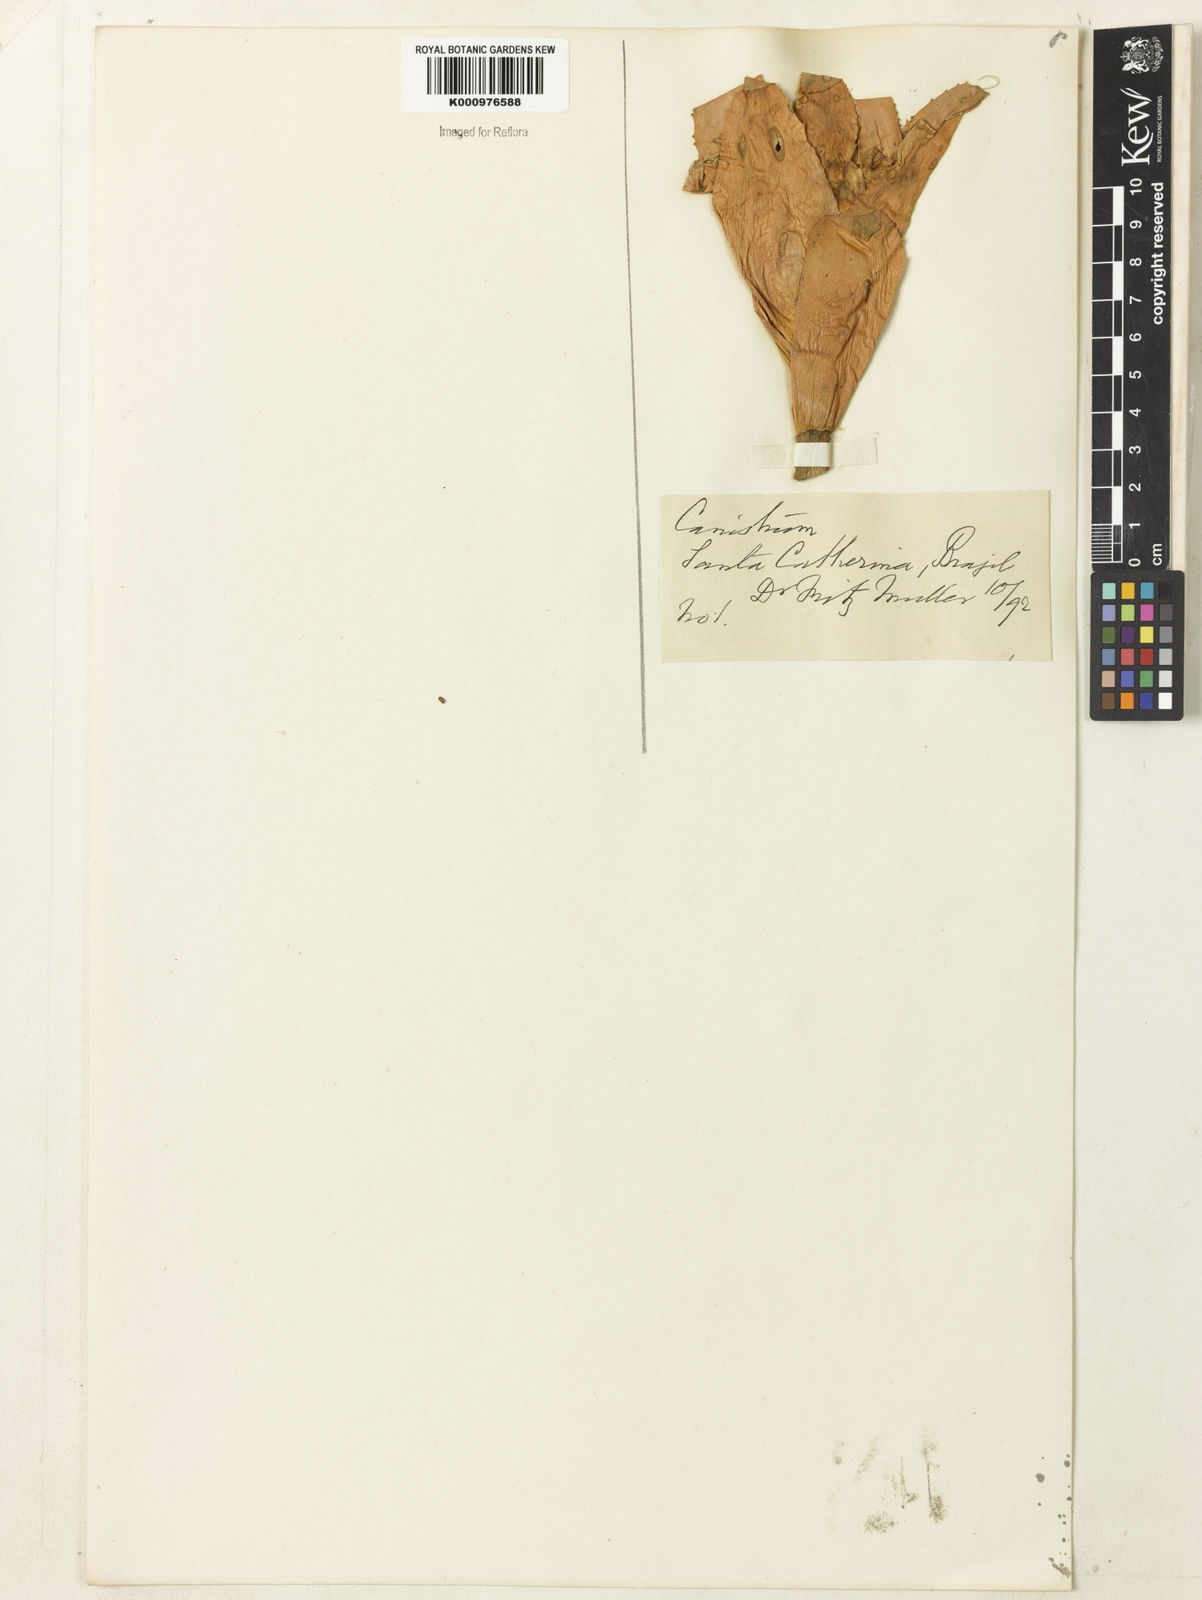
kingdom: Plantae
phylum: Tracheophyta
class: Liliopsida
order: Poales
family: Bromeliaceae
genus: Canistrum
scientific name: Canistrum
